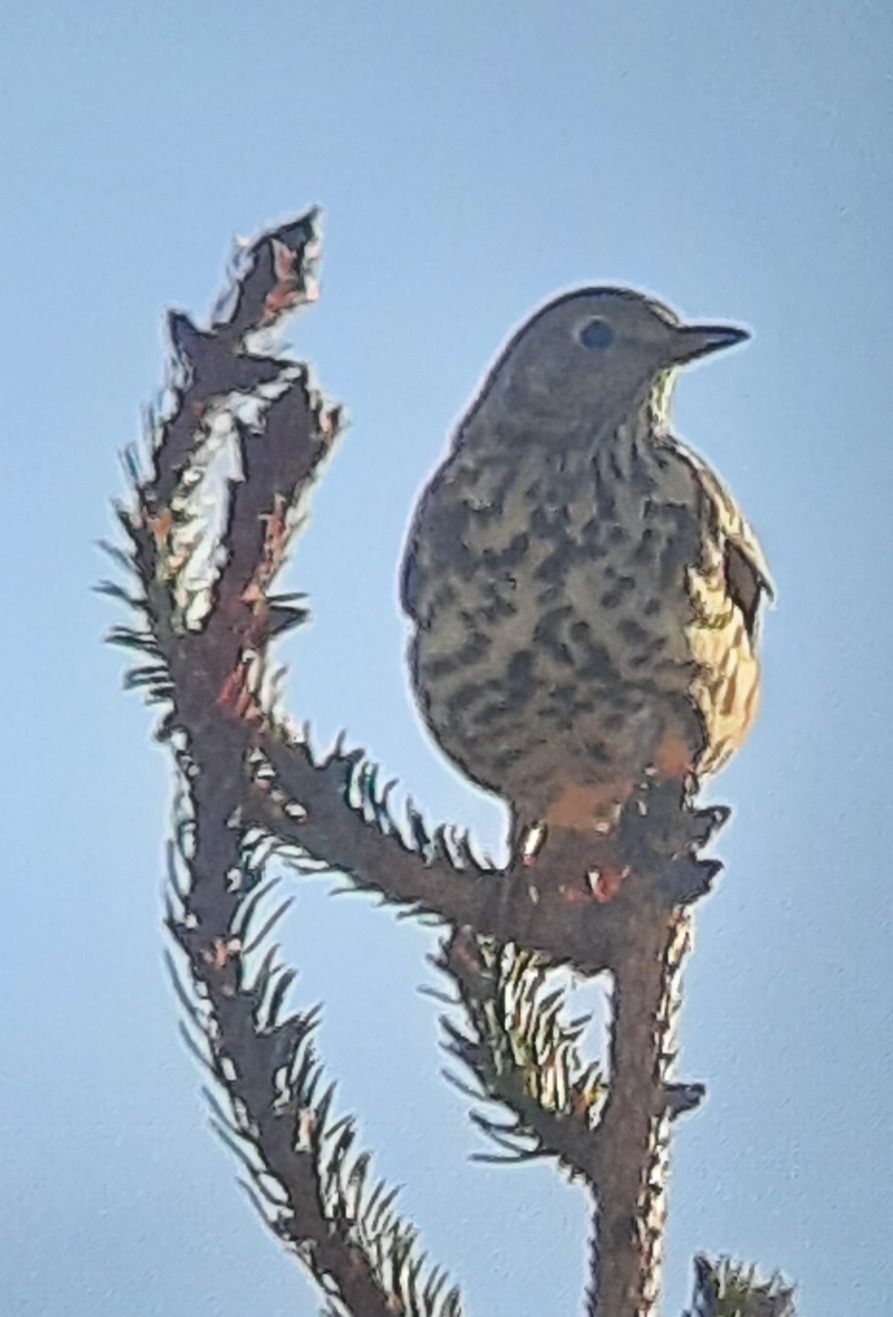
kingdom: Animalia
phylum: Chordata
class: Aves
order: Passeriformes
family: Turdidae
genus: Turdus
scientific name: Turdus viscivorus
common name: Misteldrossel
